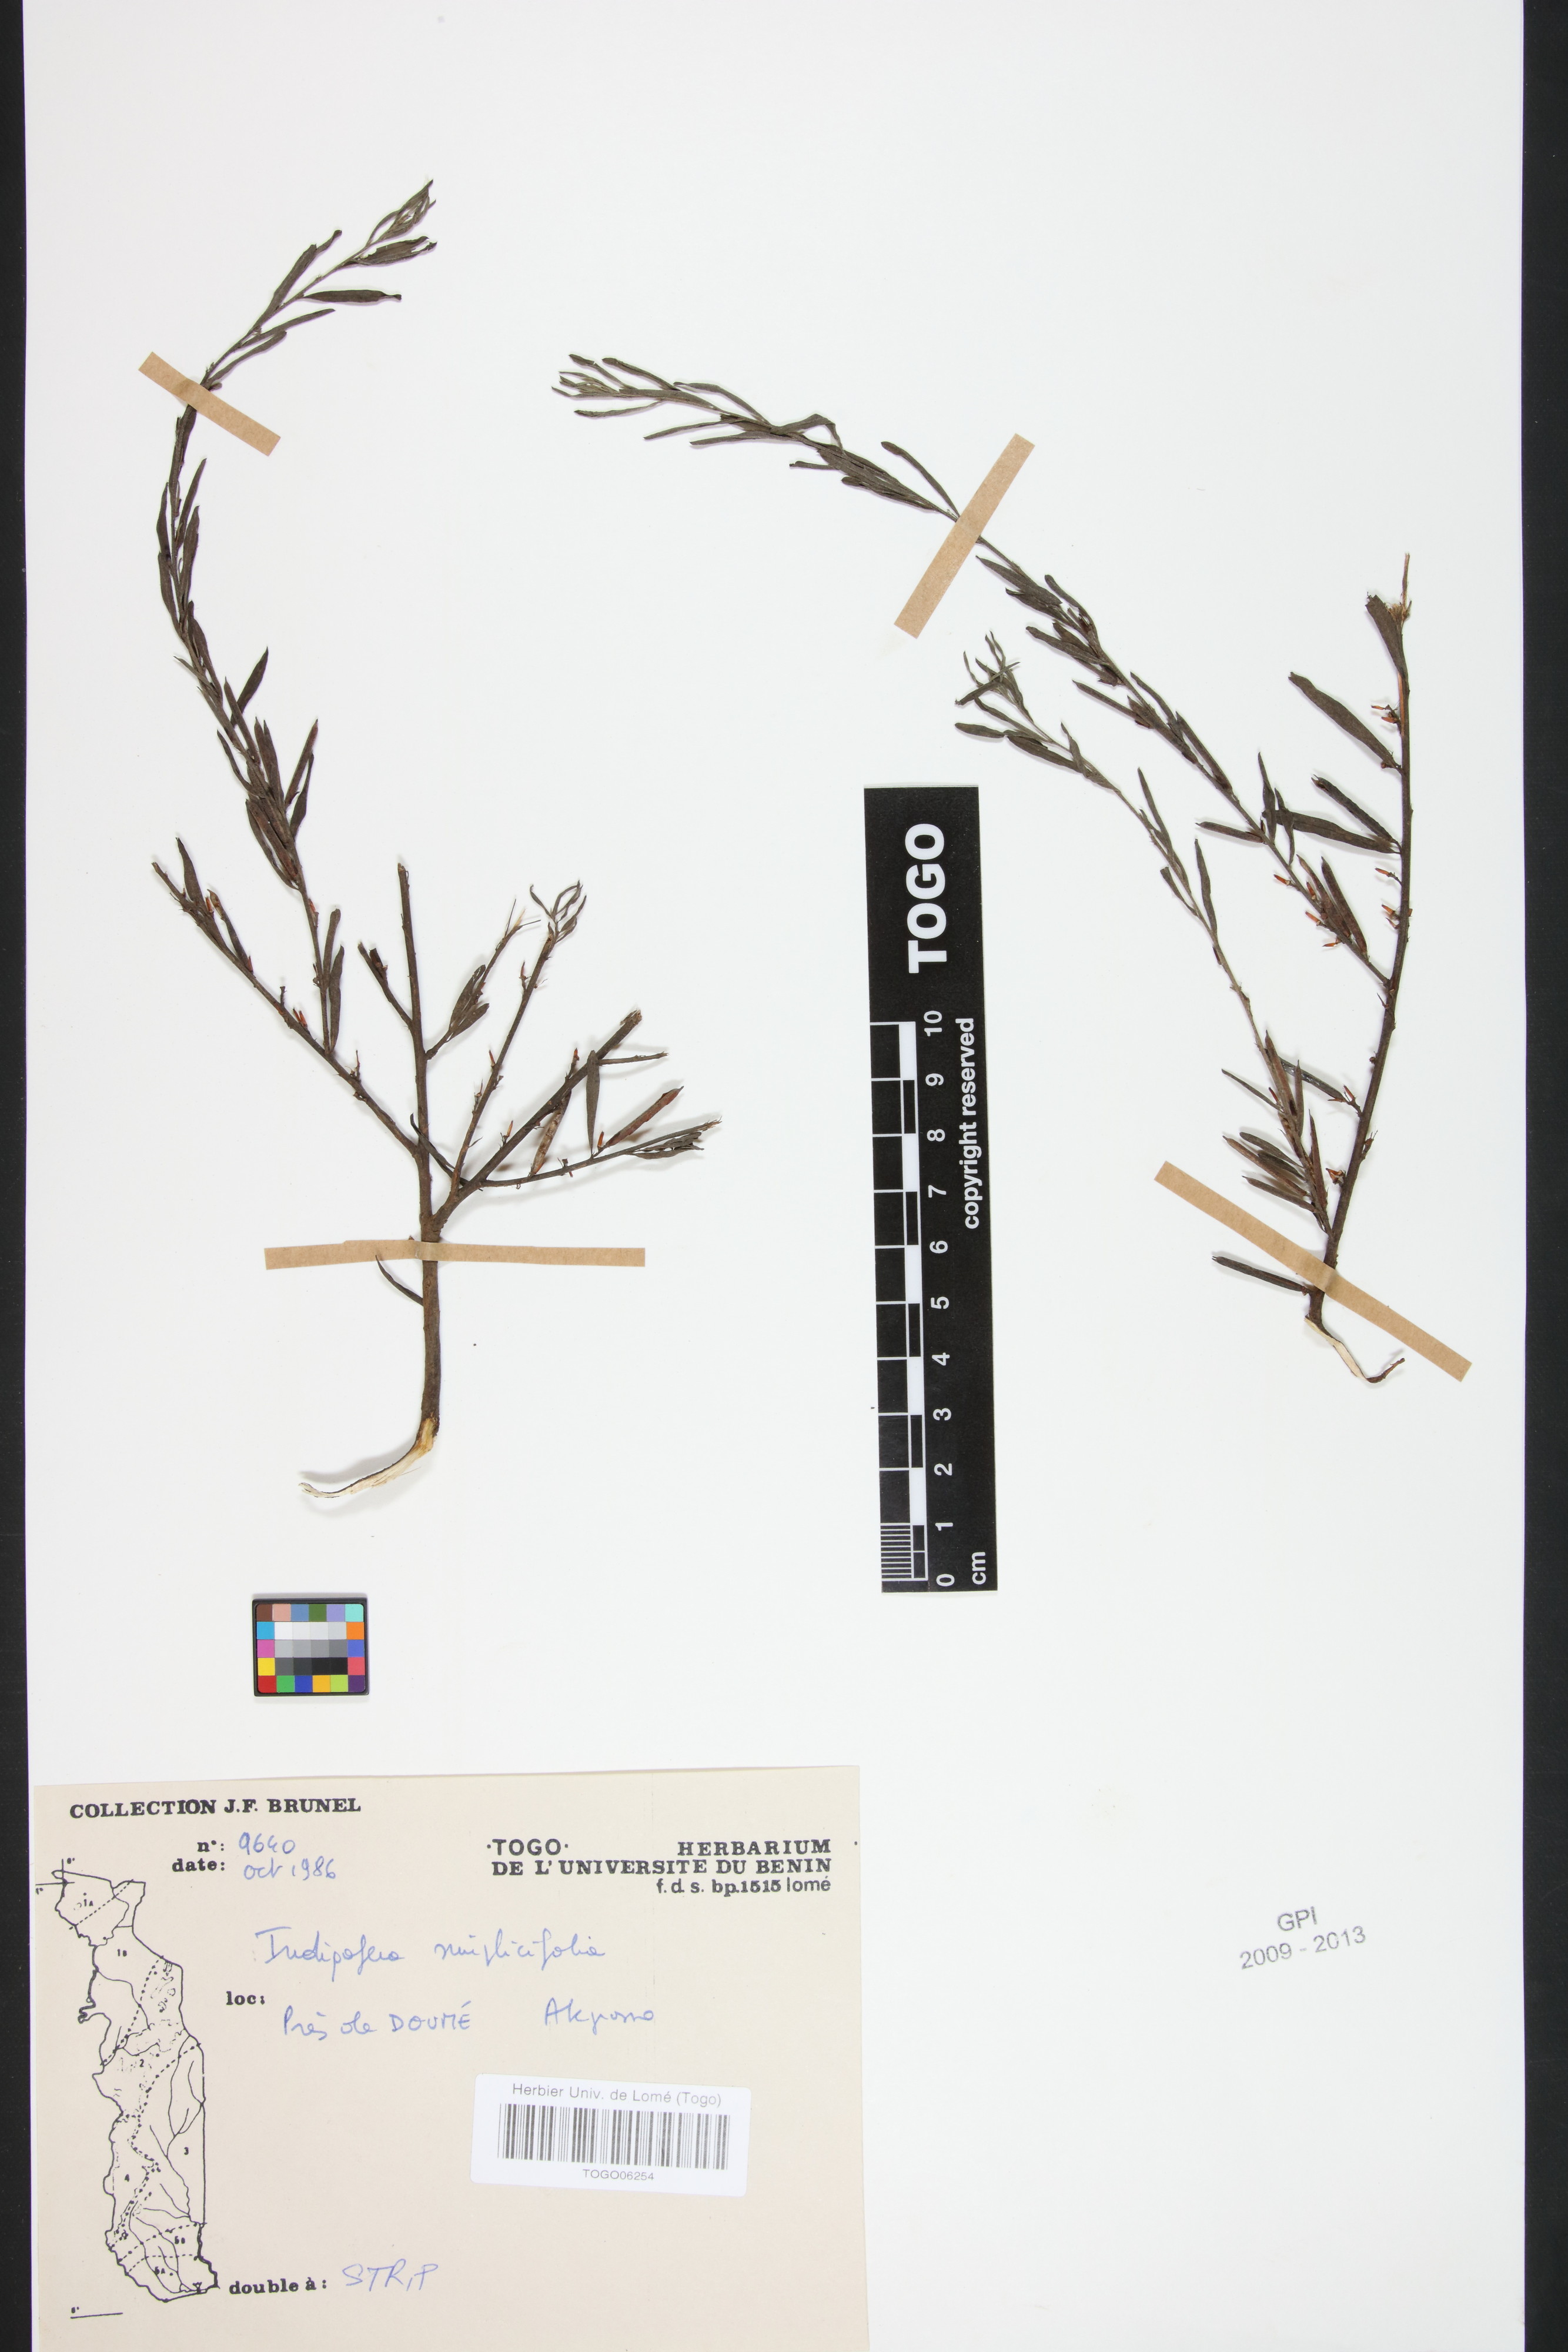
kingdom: Plantae
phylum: Tracheophyta
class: Magnoliopsida
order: Fabales
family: Fabaceae
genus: Indigofera
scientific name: Indigofera leprieurii
